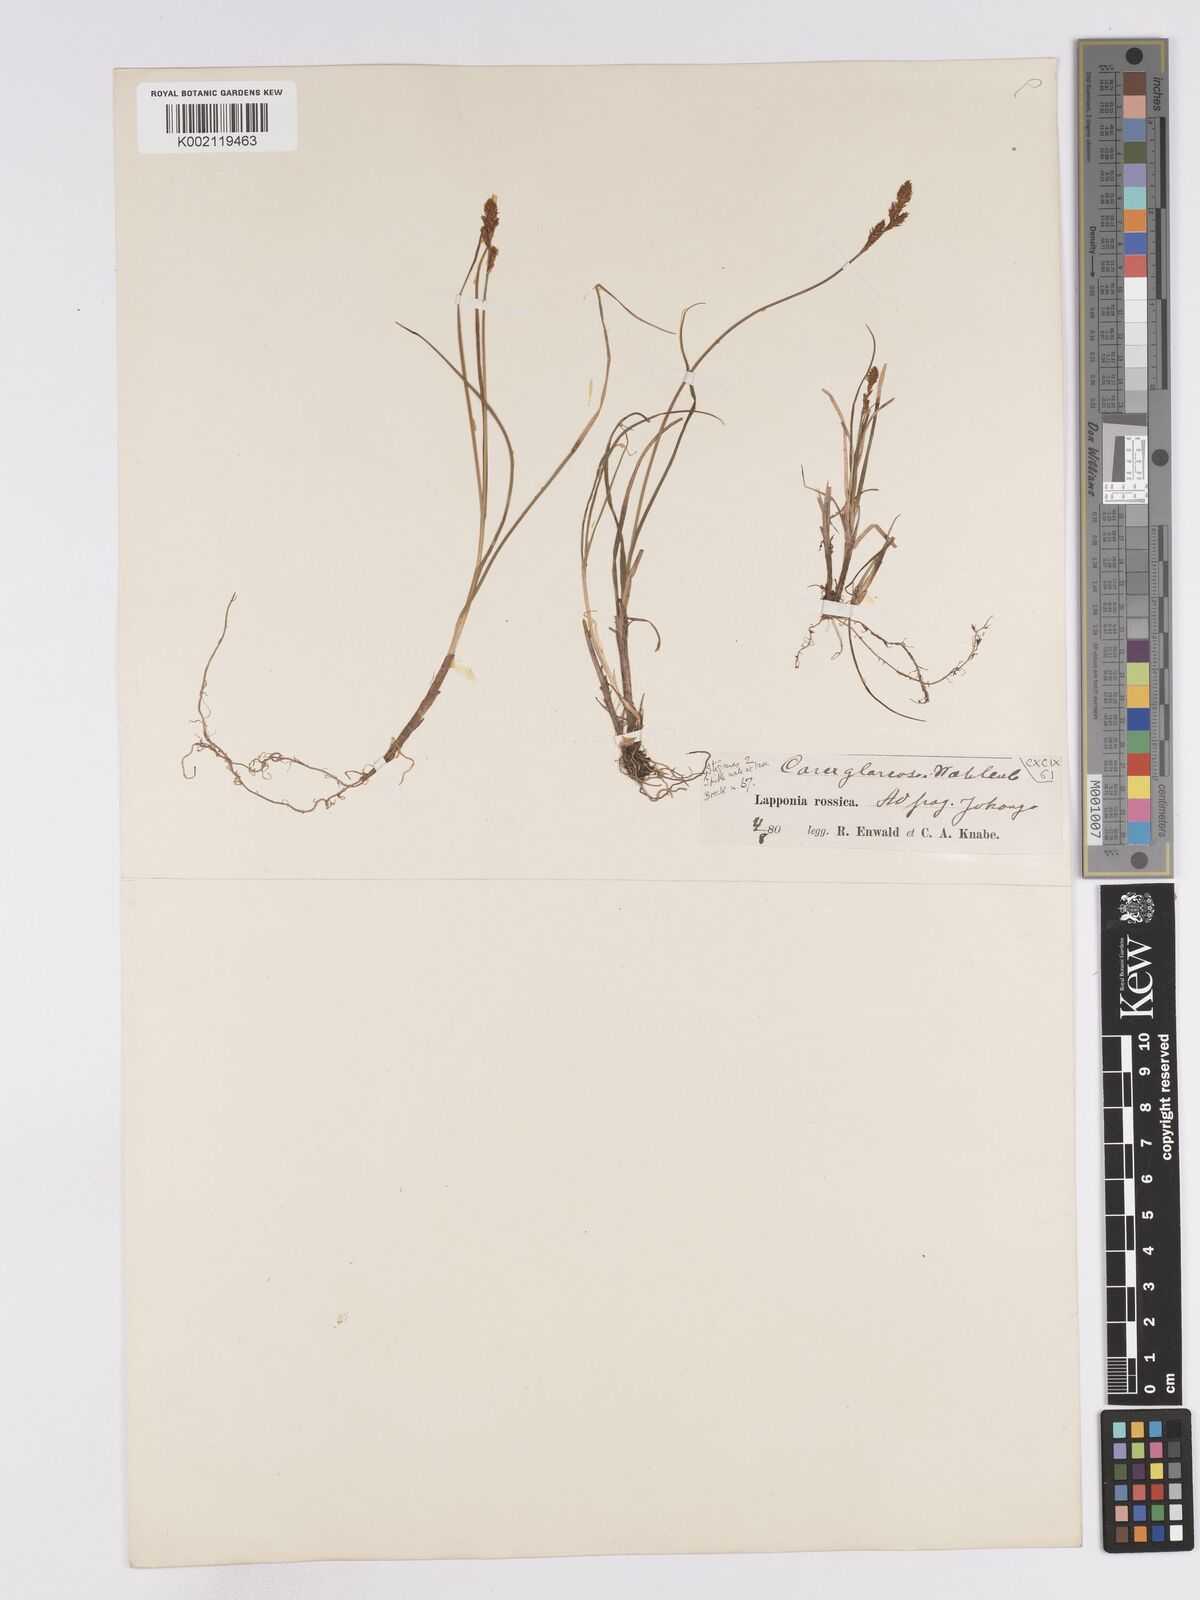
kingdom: Plantae
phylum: Tracheophyta
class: Liliopsida
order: Poales
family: Cyperaceae
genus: Carex
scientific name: Carex glareosa
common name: Clustered sedge
